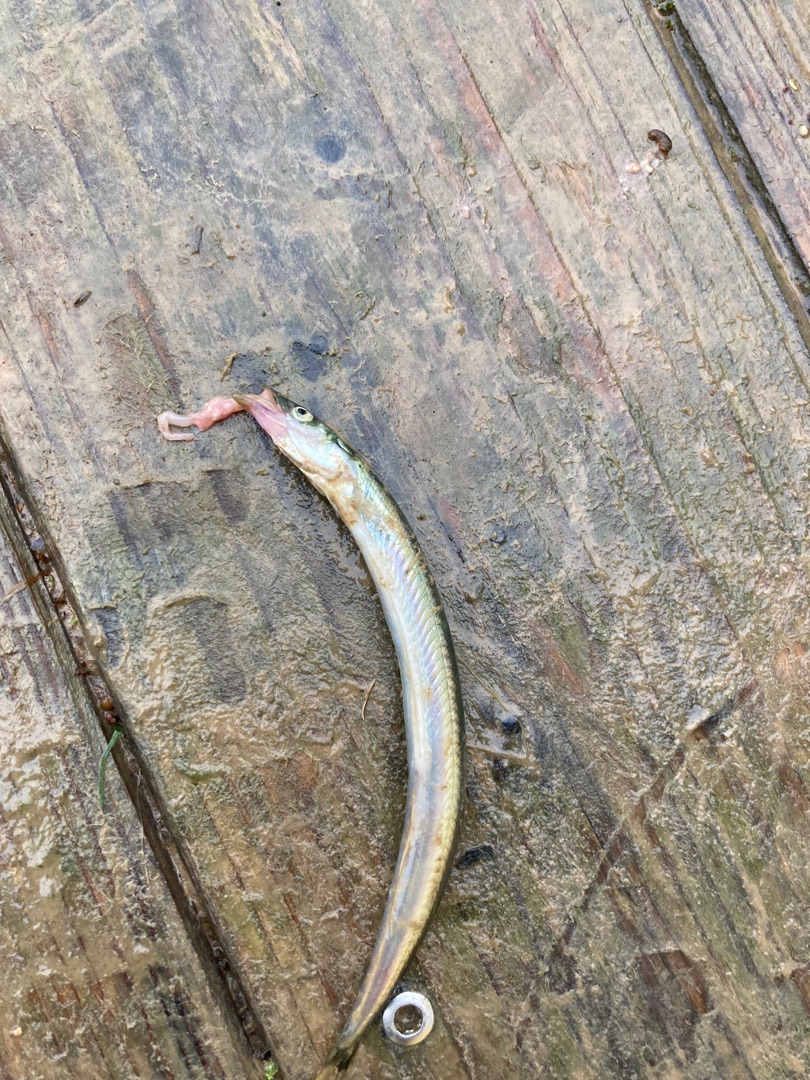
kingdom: Animalia
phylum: Chordata
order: Perciformes
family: Ammodytidae
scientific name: Ammodytidae
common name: Tobisfamilien
